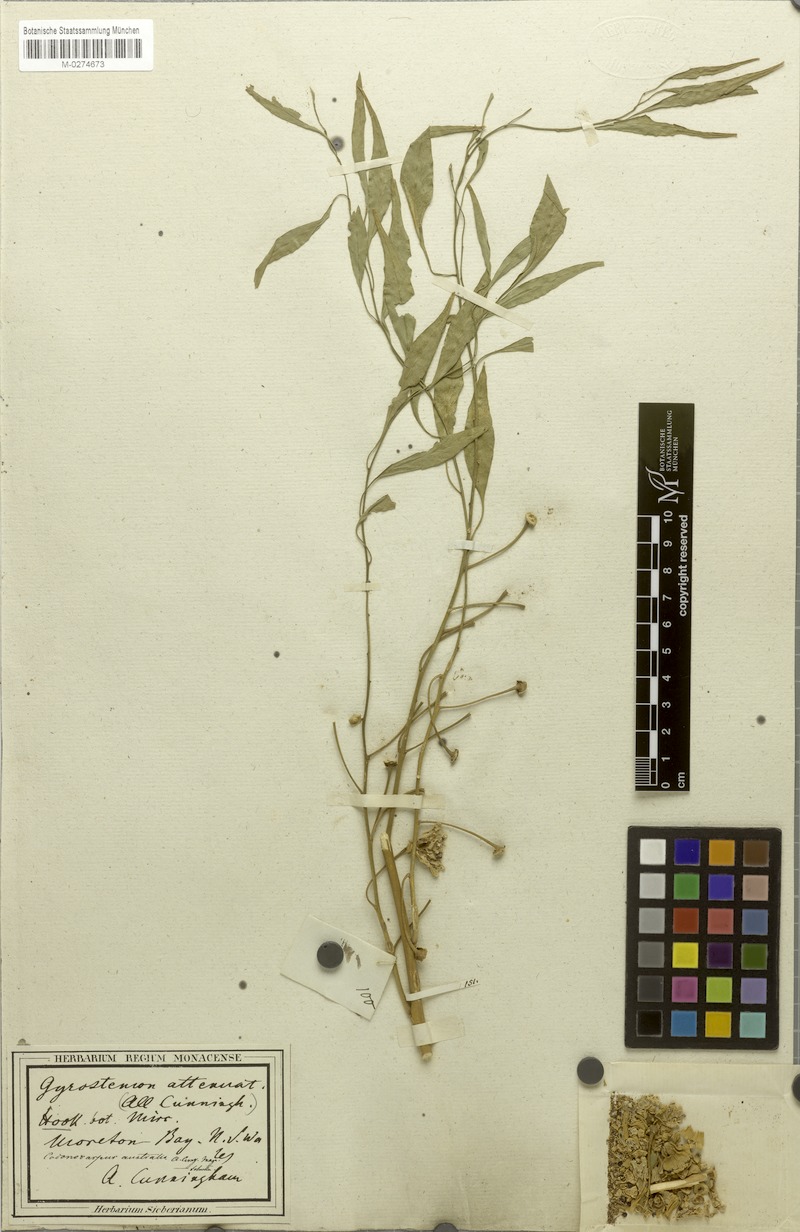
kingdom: Plantae
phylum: Tracheophyta
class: Magnoliopsida
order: Brassicales
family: Gyrostemonaceae
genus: Codonocarpus
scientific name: Codonocarpus attenuatus
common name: Bell-fruit-tree
